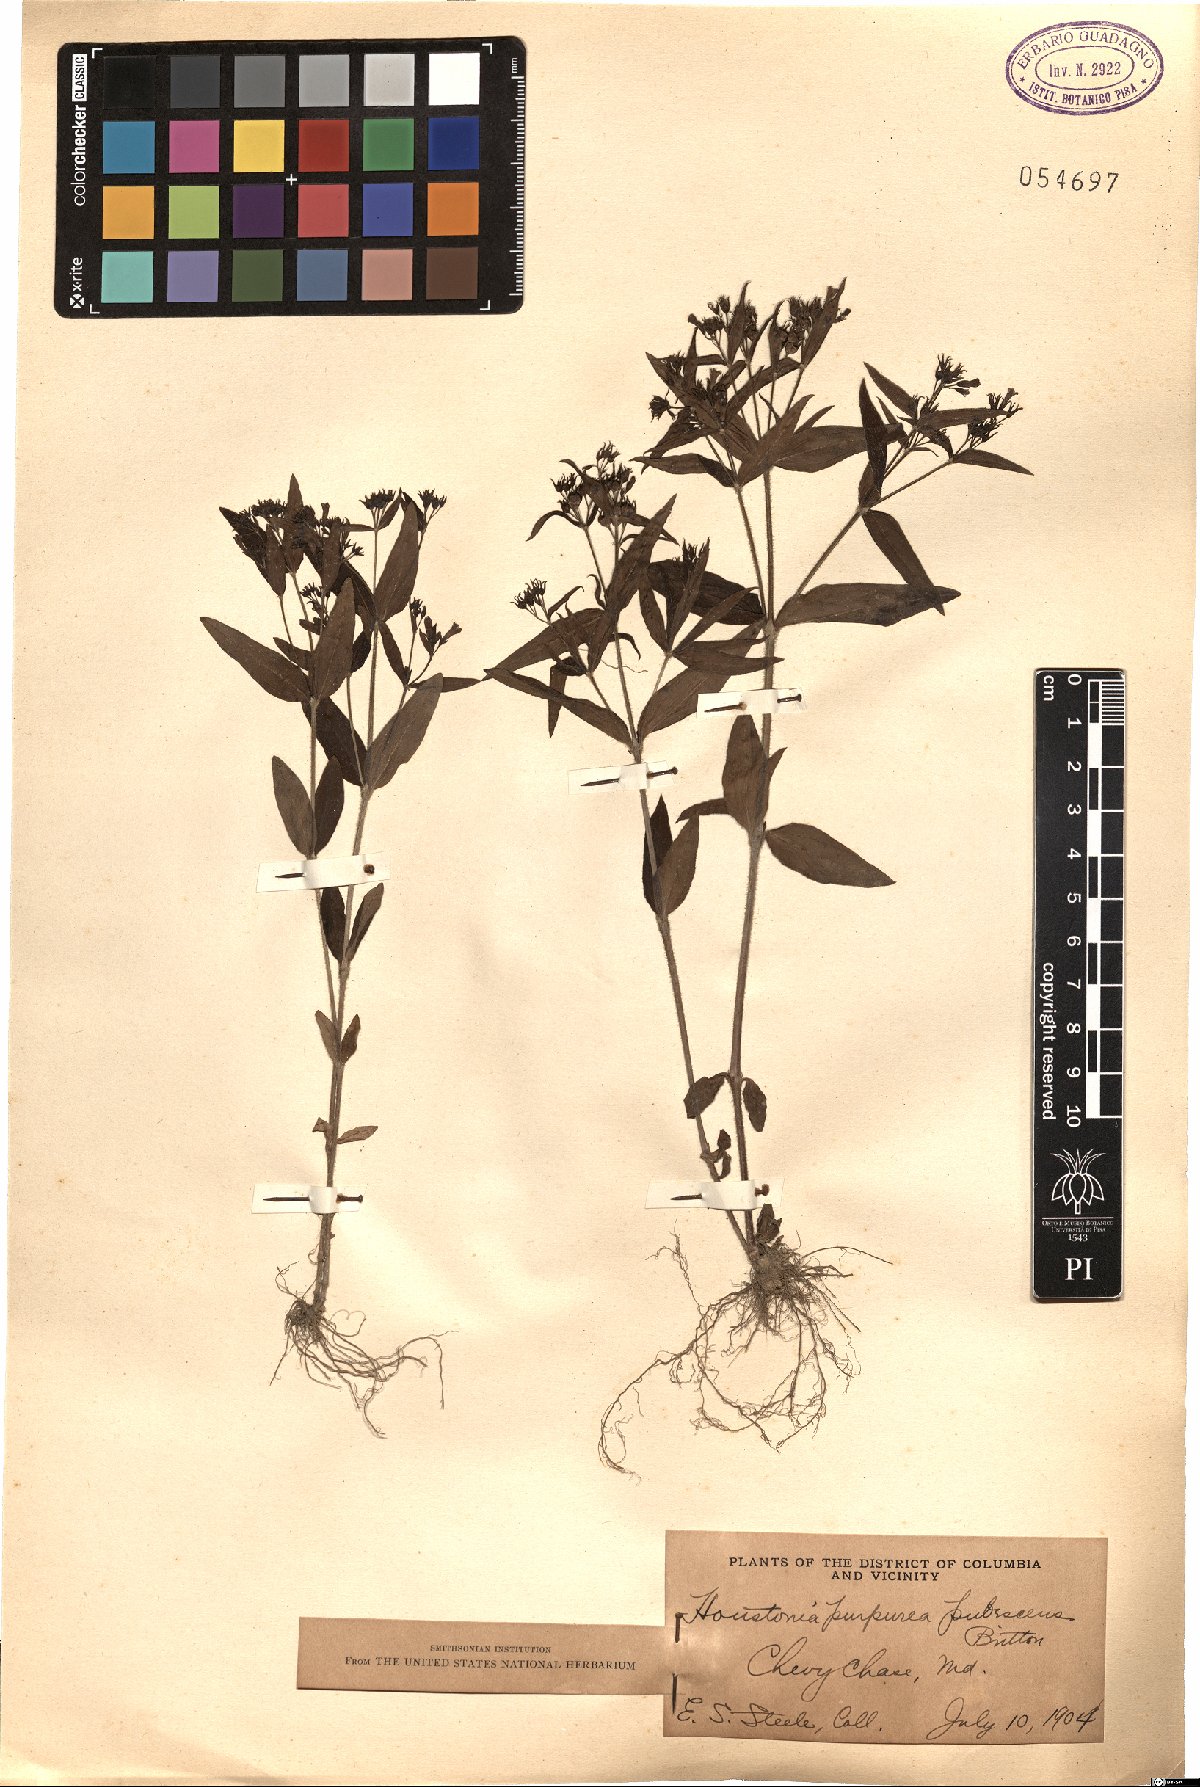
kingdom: Plantae
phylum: Tracheophyta
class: Magnoliopsida
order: Gentianales
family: Rubiaceae
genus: Houstonia
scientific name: Houstonia purpurea
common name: Summer bluet
